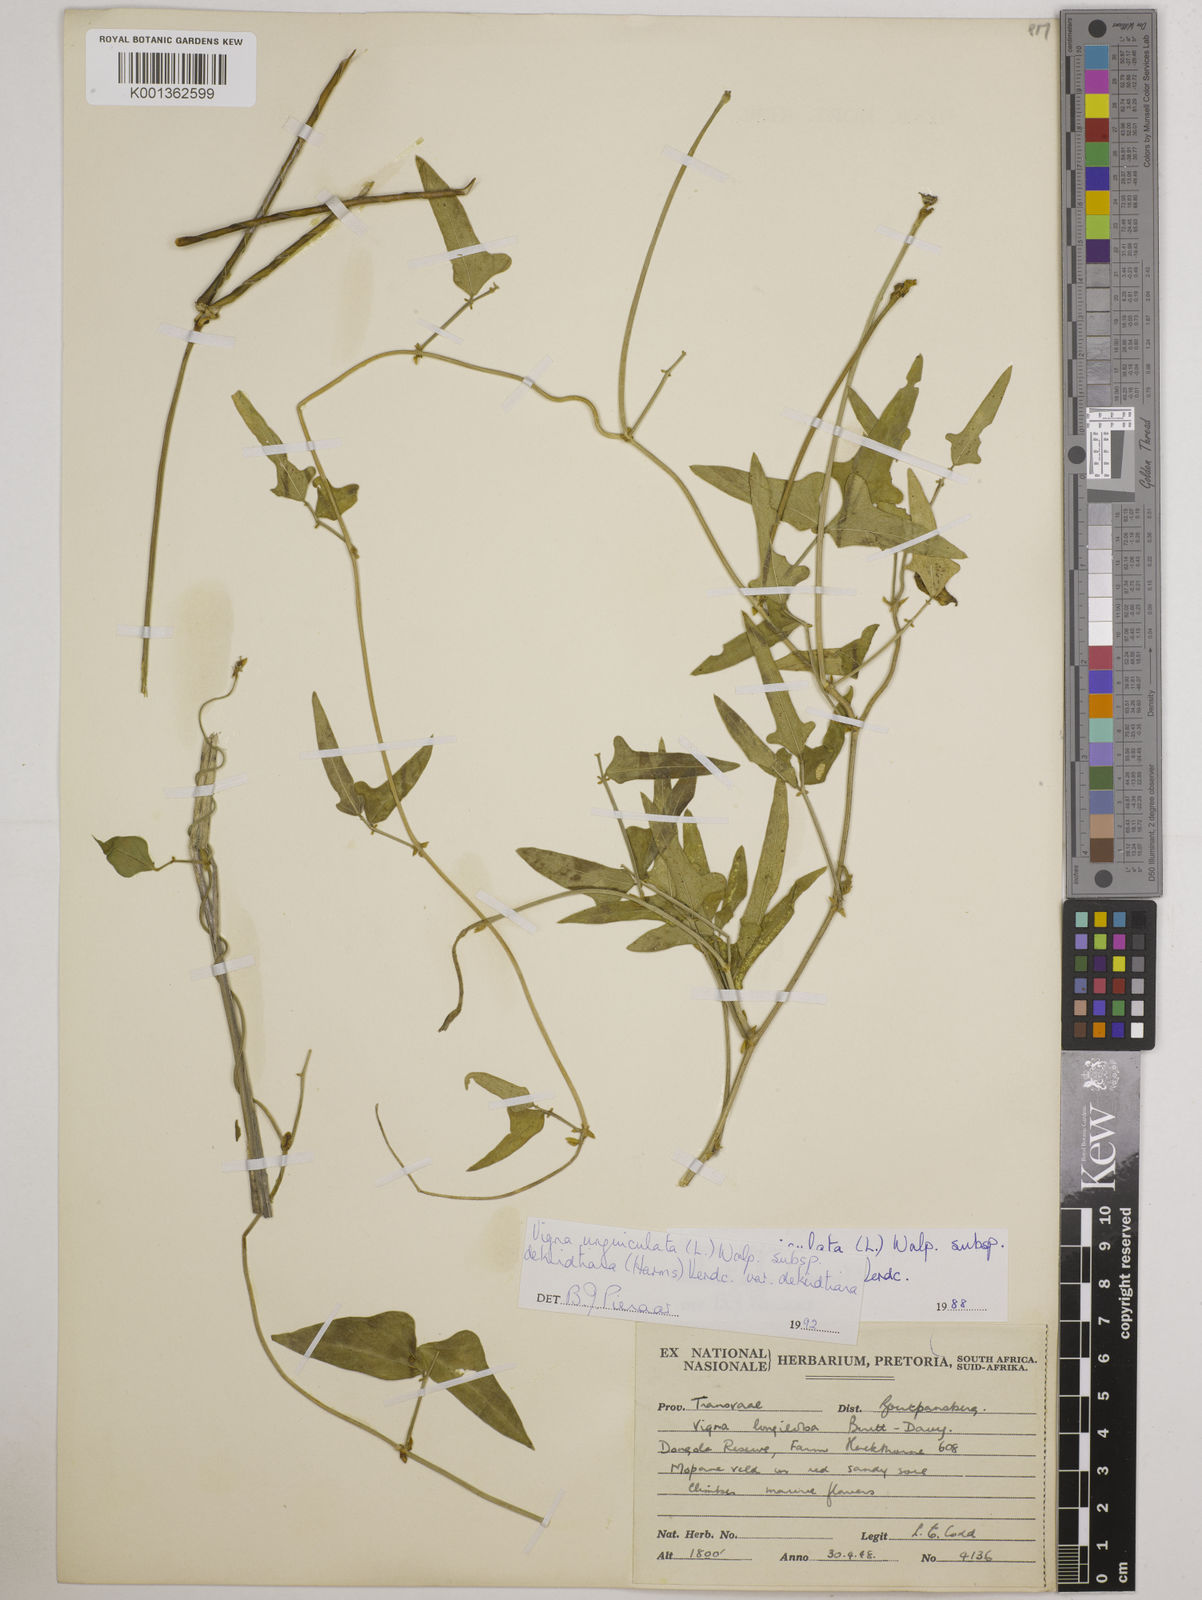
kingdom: Plantae
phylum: Tracheophyta
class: Magnoliopsida
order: Fabales
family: Fabaceae
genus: Vigna
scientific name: Vigna
